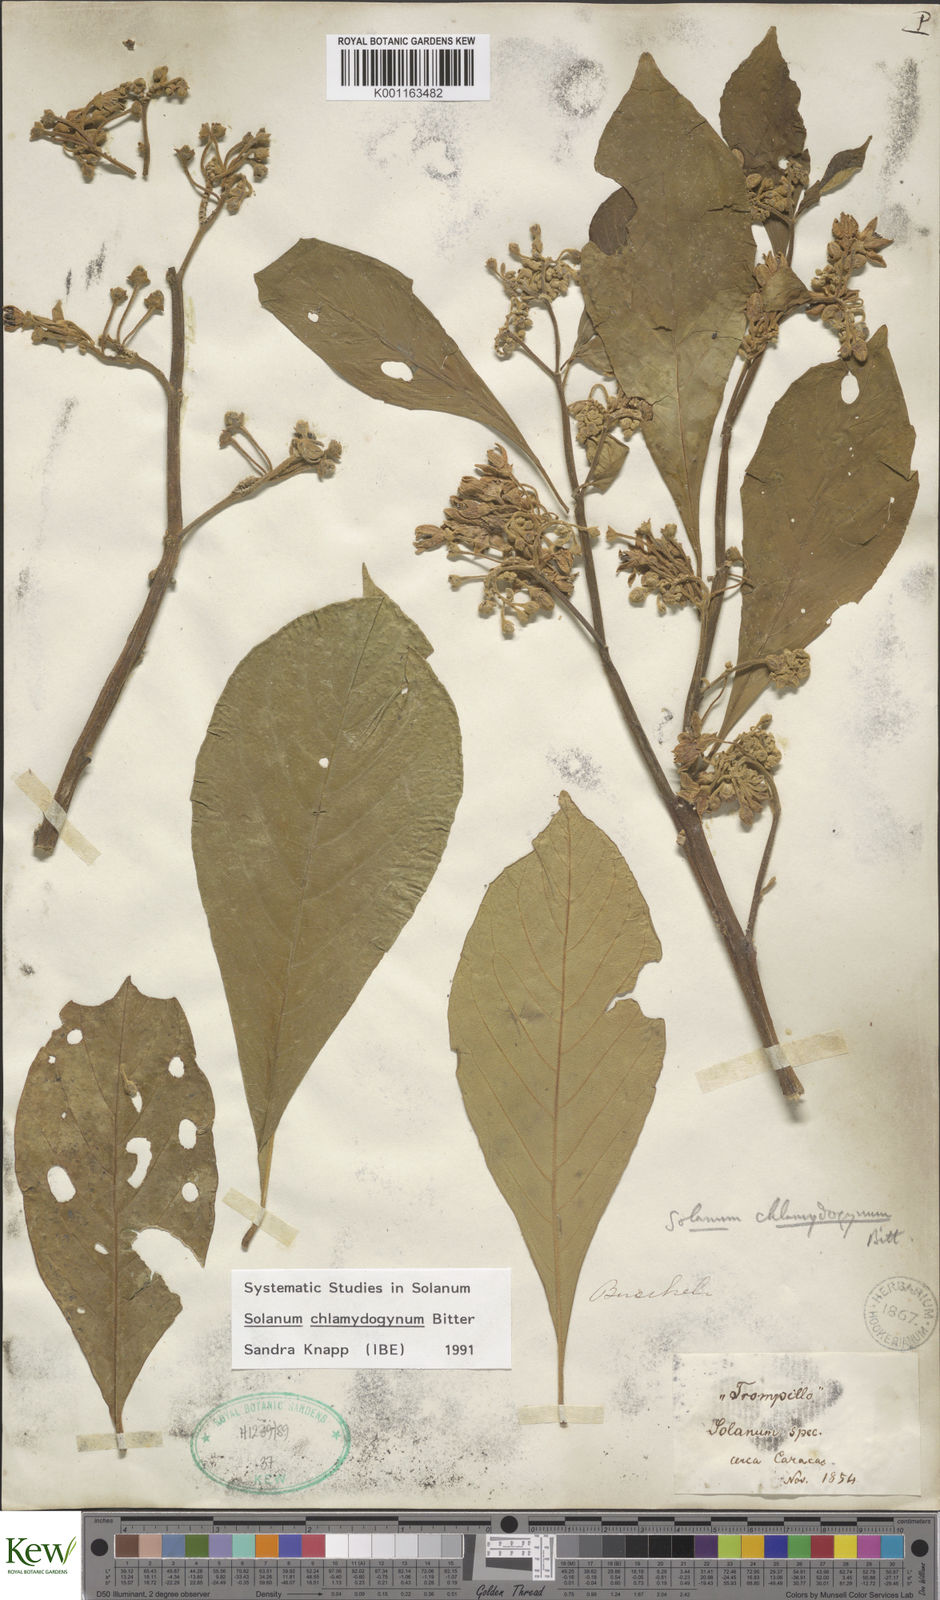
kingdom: Plantae
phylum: Tracheophyta
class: Magnoliopsida
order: Solanales
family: Solanaceae
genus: Solanum
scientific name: Solanum chlamydogynum
